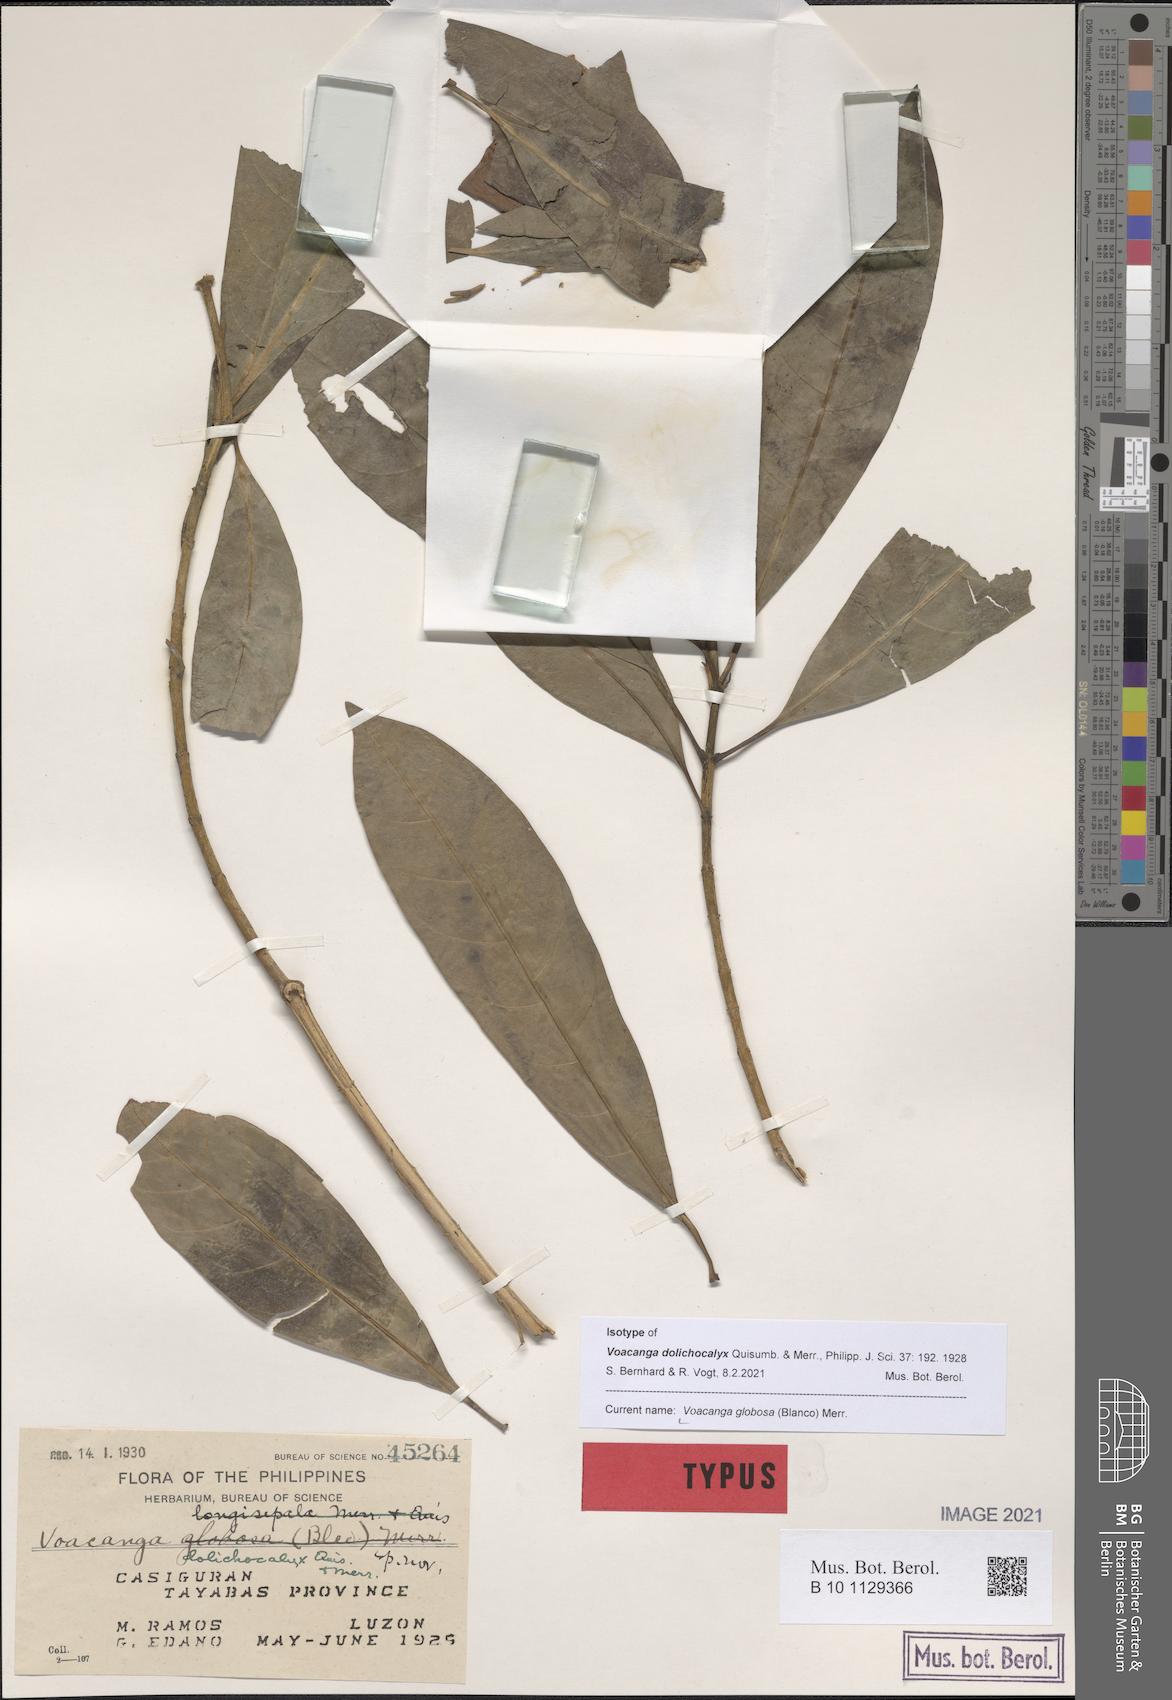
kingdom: Plantae
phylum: Tracheophyta
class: Magnoliopsida
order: Gentianales
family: Apocynaceae
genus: Voacanga
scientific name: Voacanga globosa
